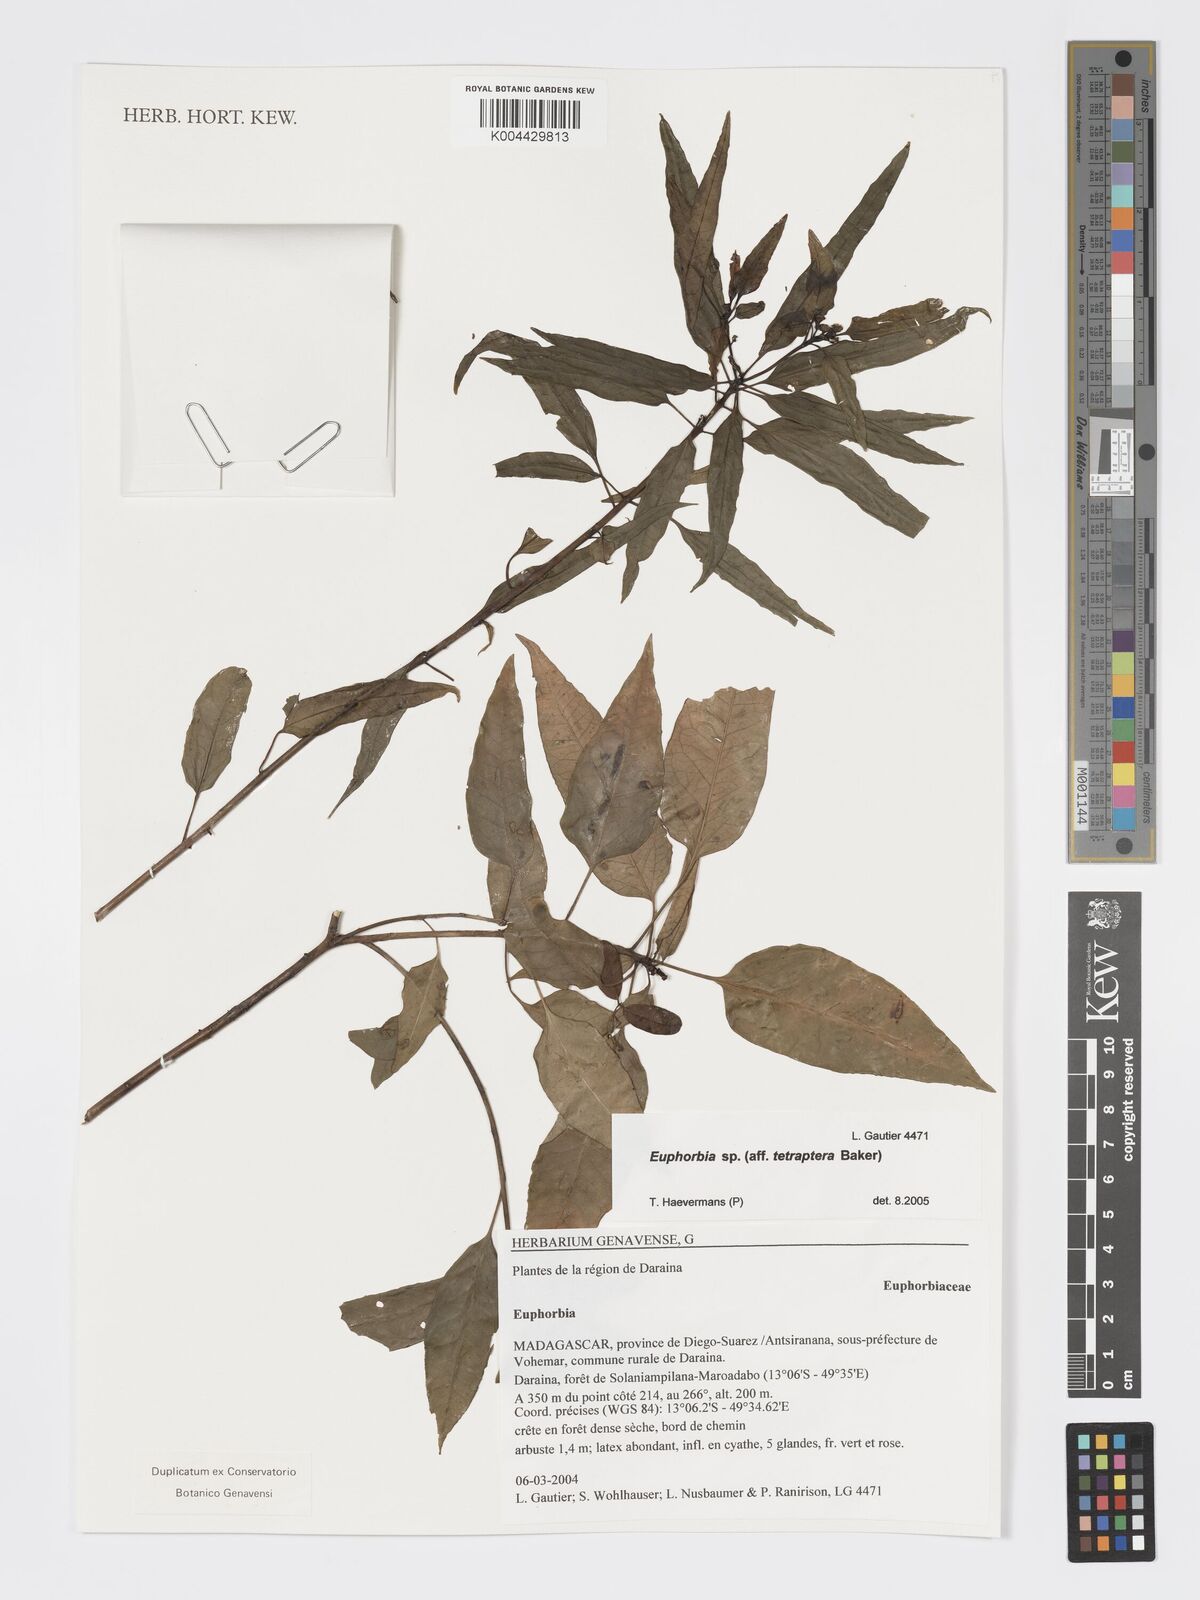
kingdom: Plantae
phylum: Tracheophyta
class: Magnoliopsida
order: Malpighiales
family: Euphorbiaceae
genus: Euphorbia
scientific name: Euphorbia tetraptera
